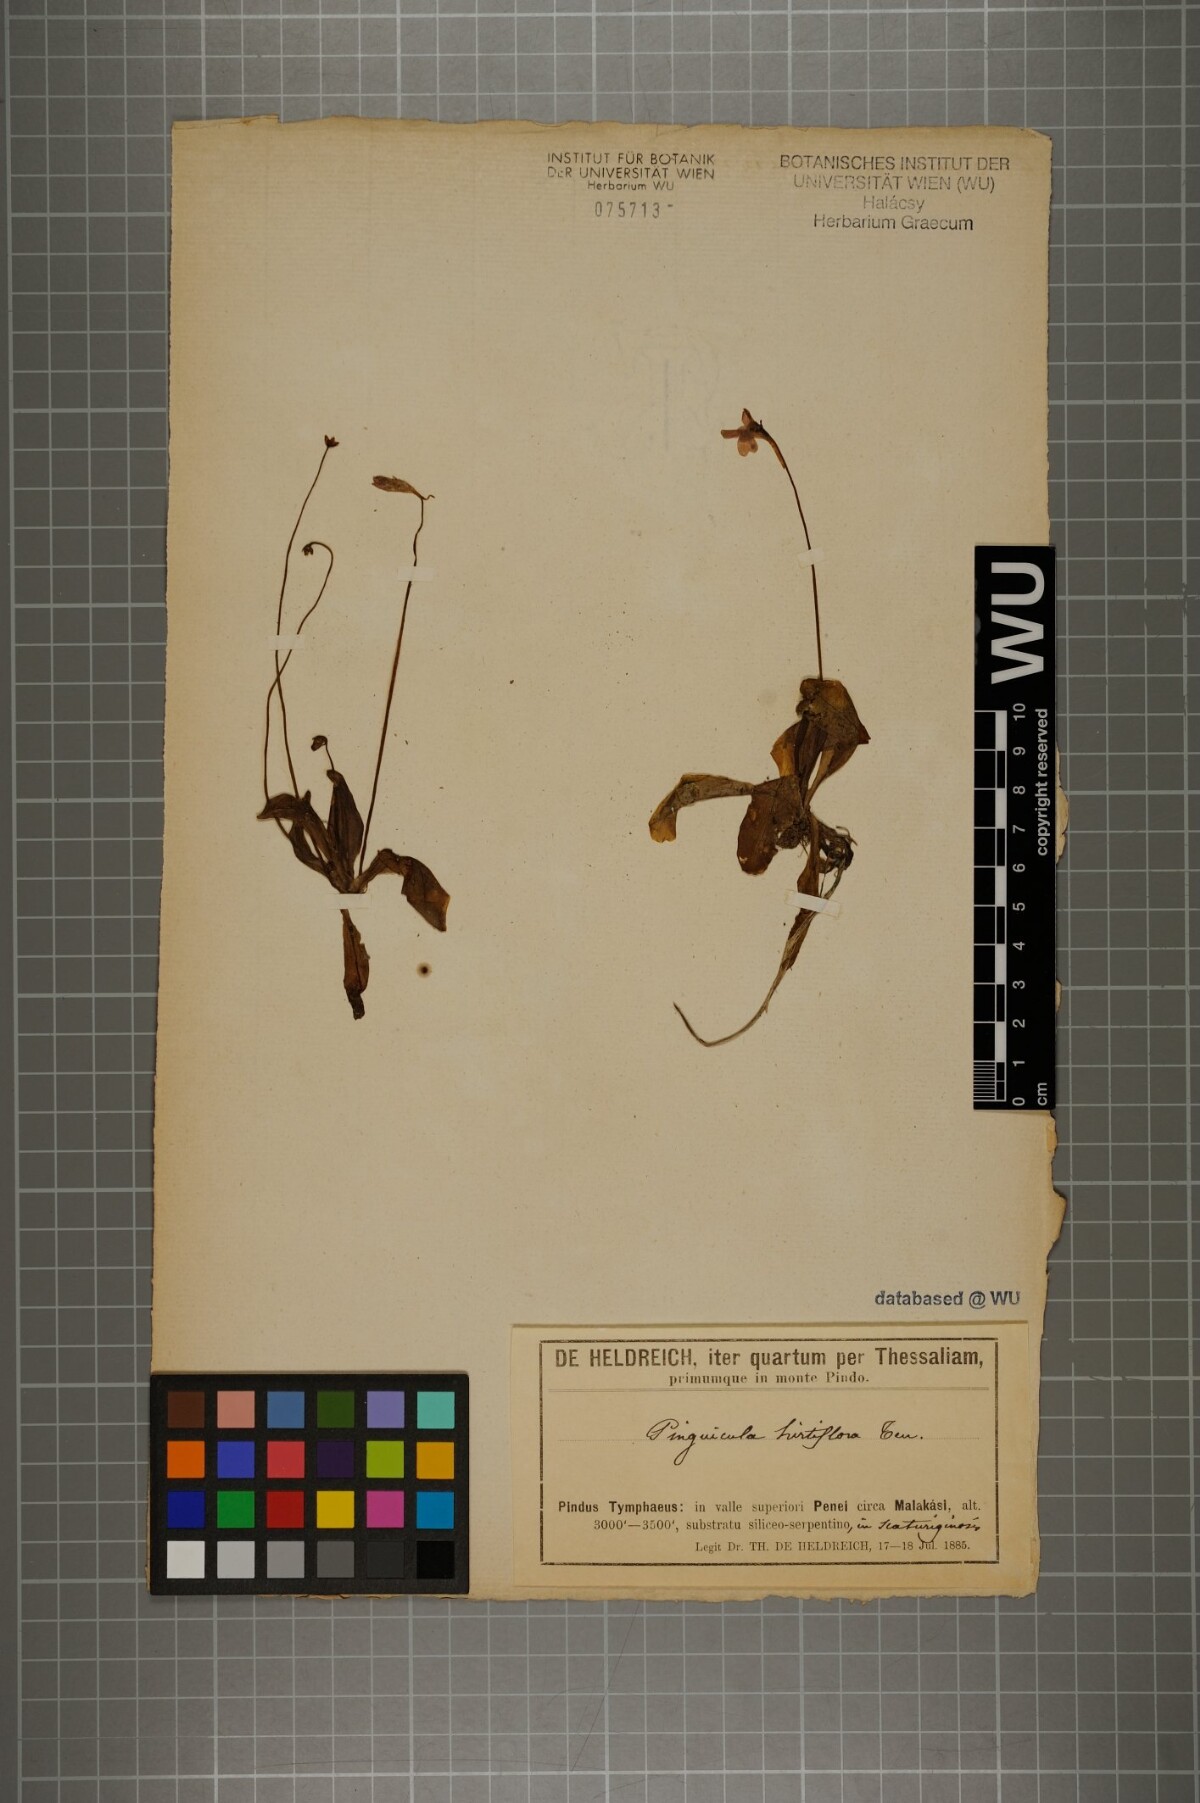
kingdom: Plantae
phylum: Tracheophyta
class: Magnoliopsida
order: Lamiales
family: Lentibulariaceae
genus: Pinguicula
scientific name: Pinguicula crystallina
